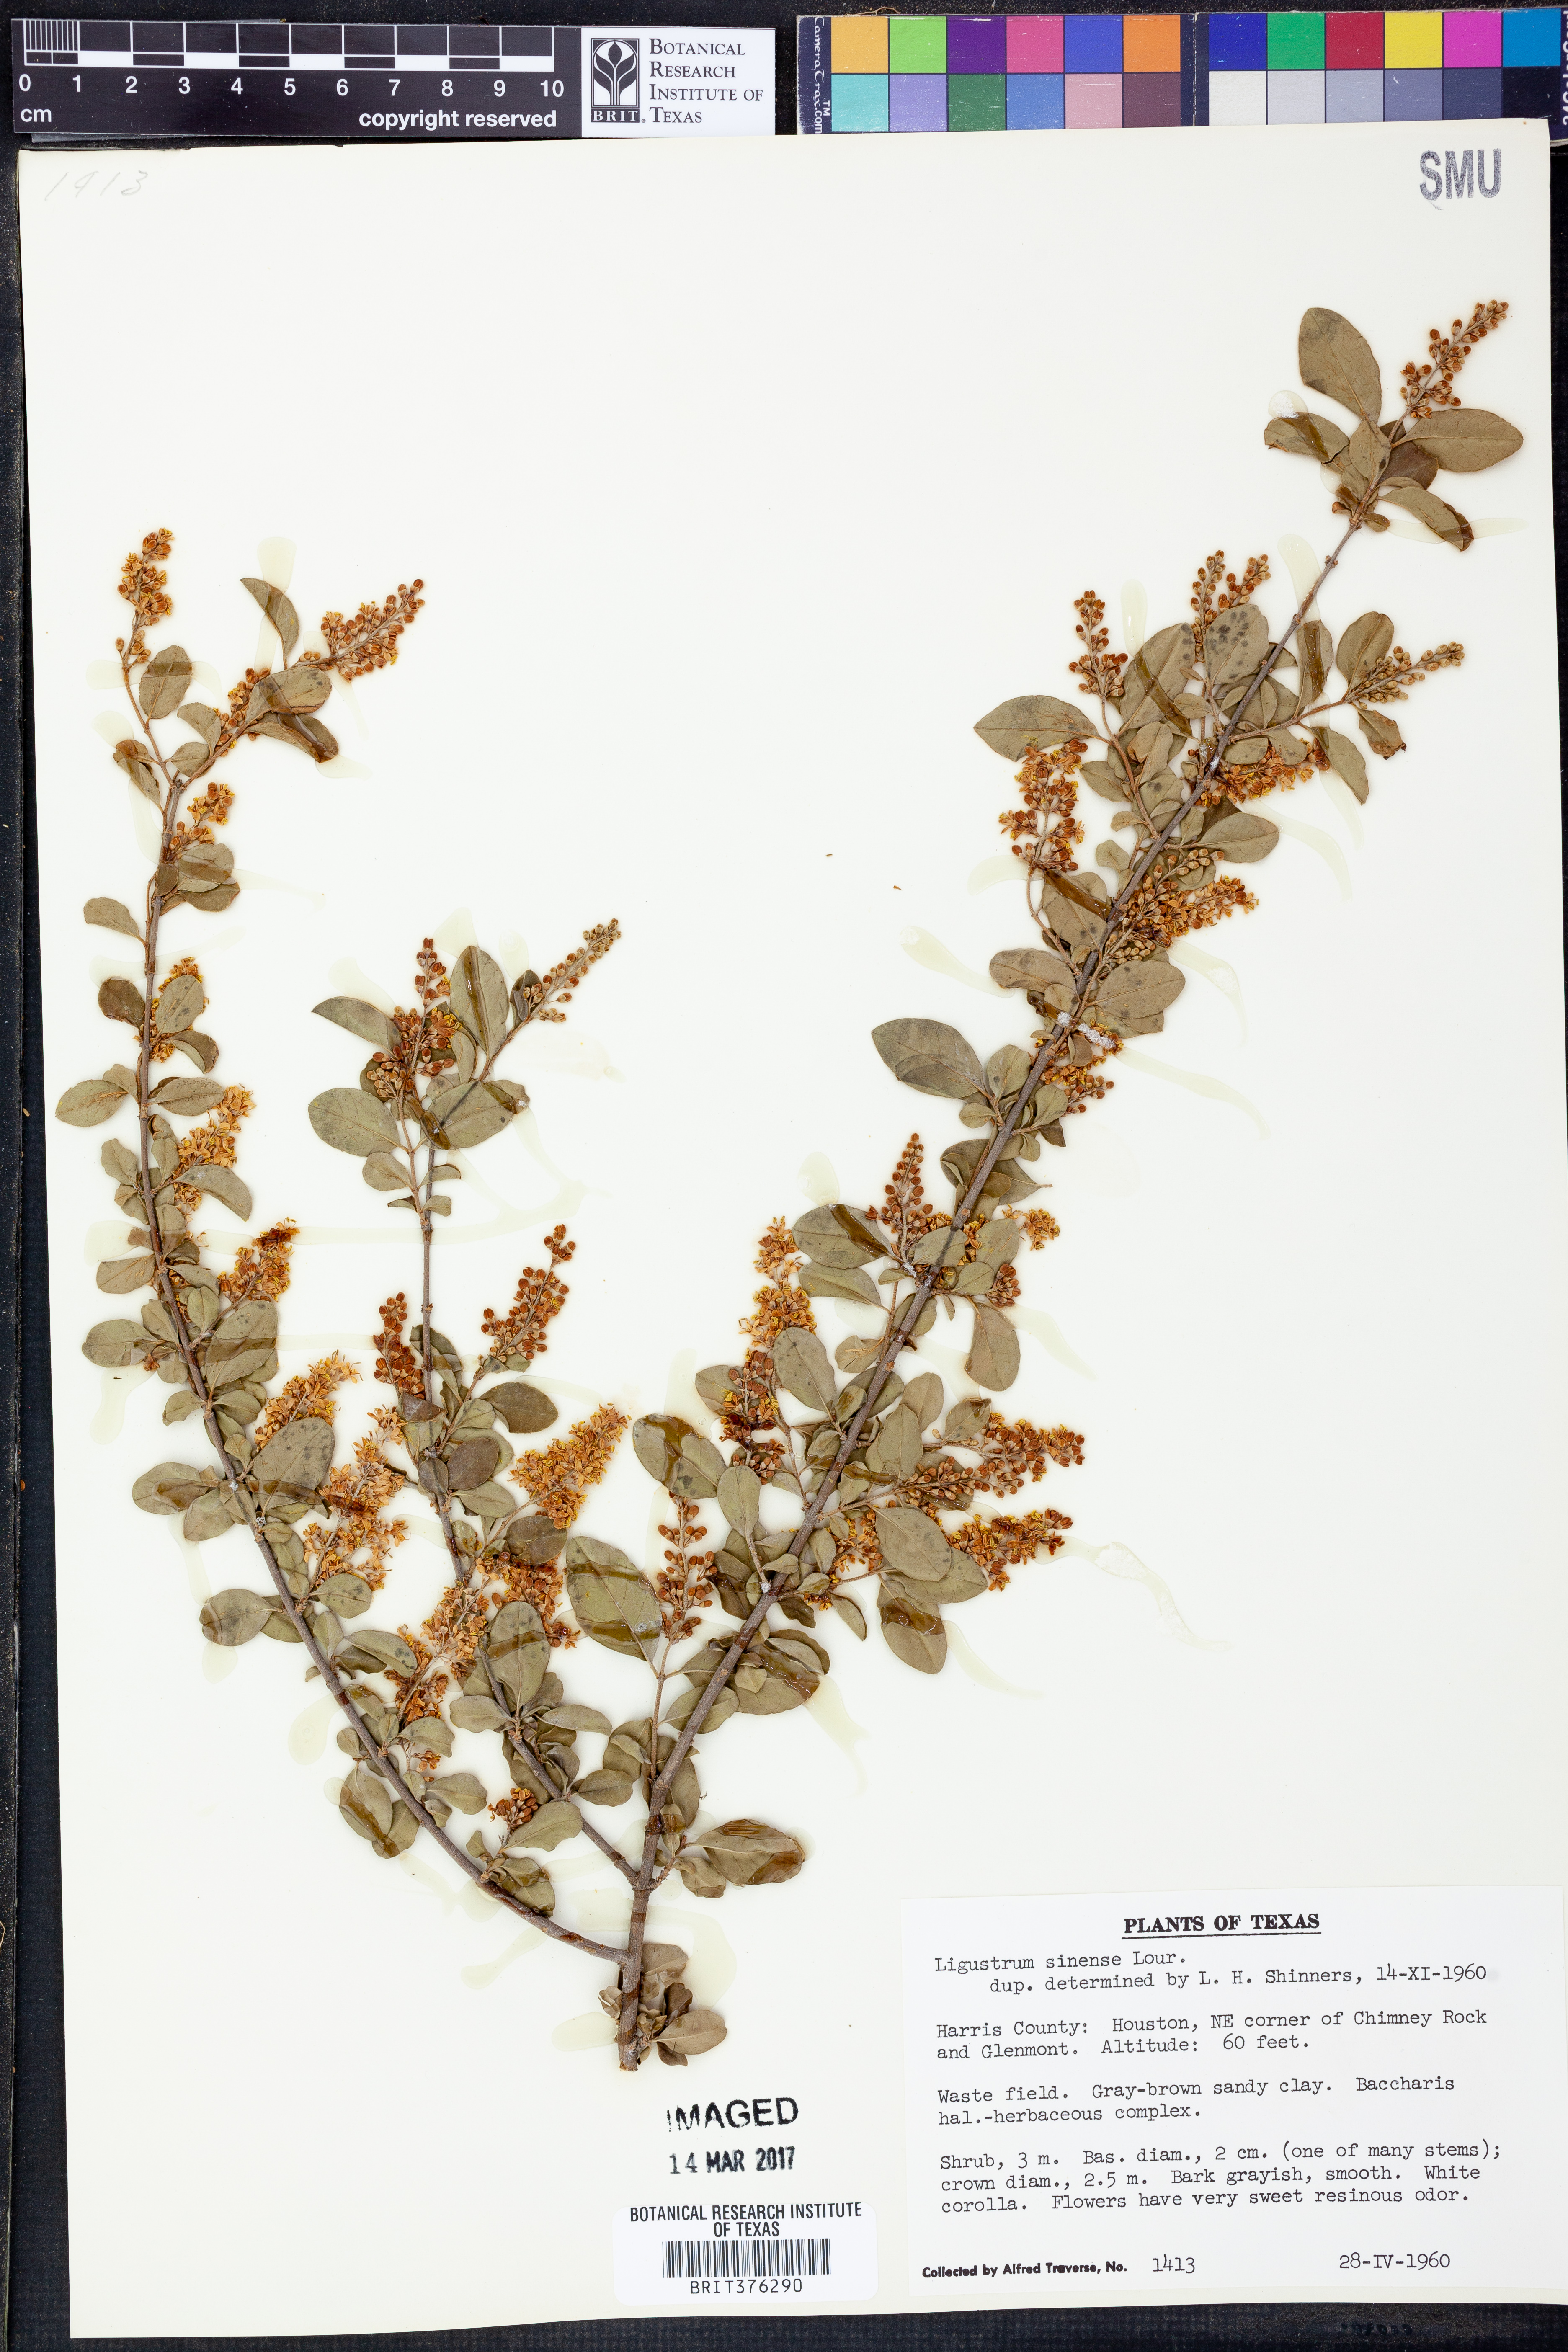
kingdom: Plantae
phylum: Tracheophyta
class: Magnoliopsida
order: Lamiales
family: Oleaceae
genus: Ligustrum
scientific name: Ligustrum sinense
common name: Chinese privet
